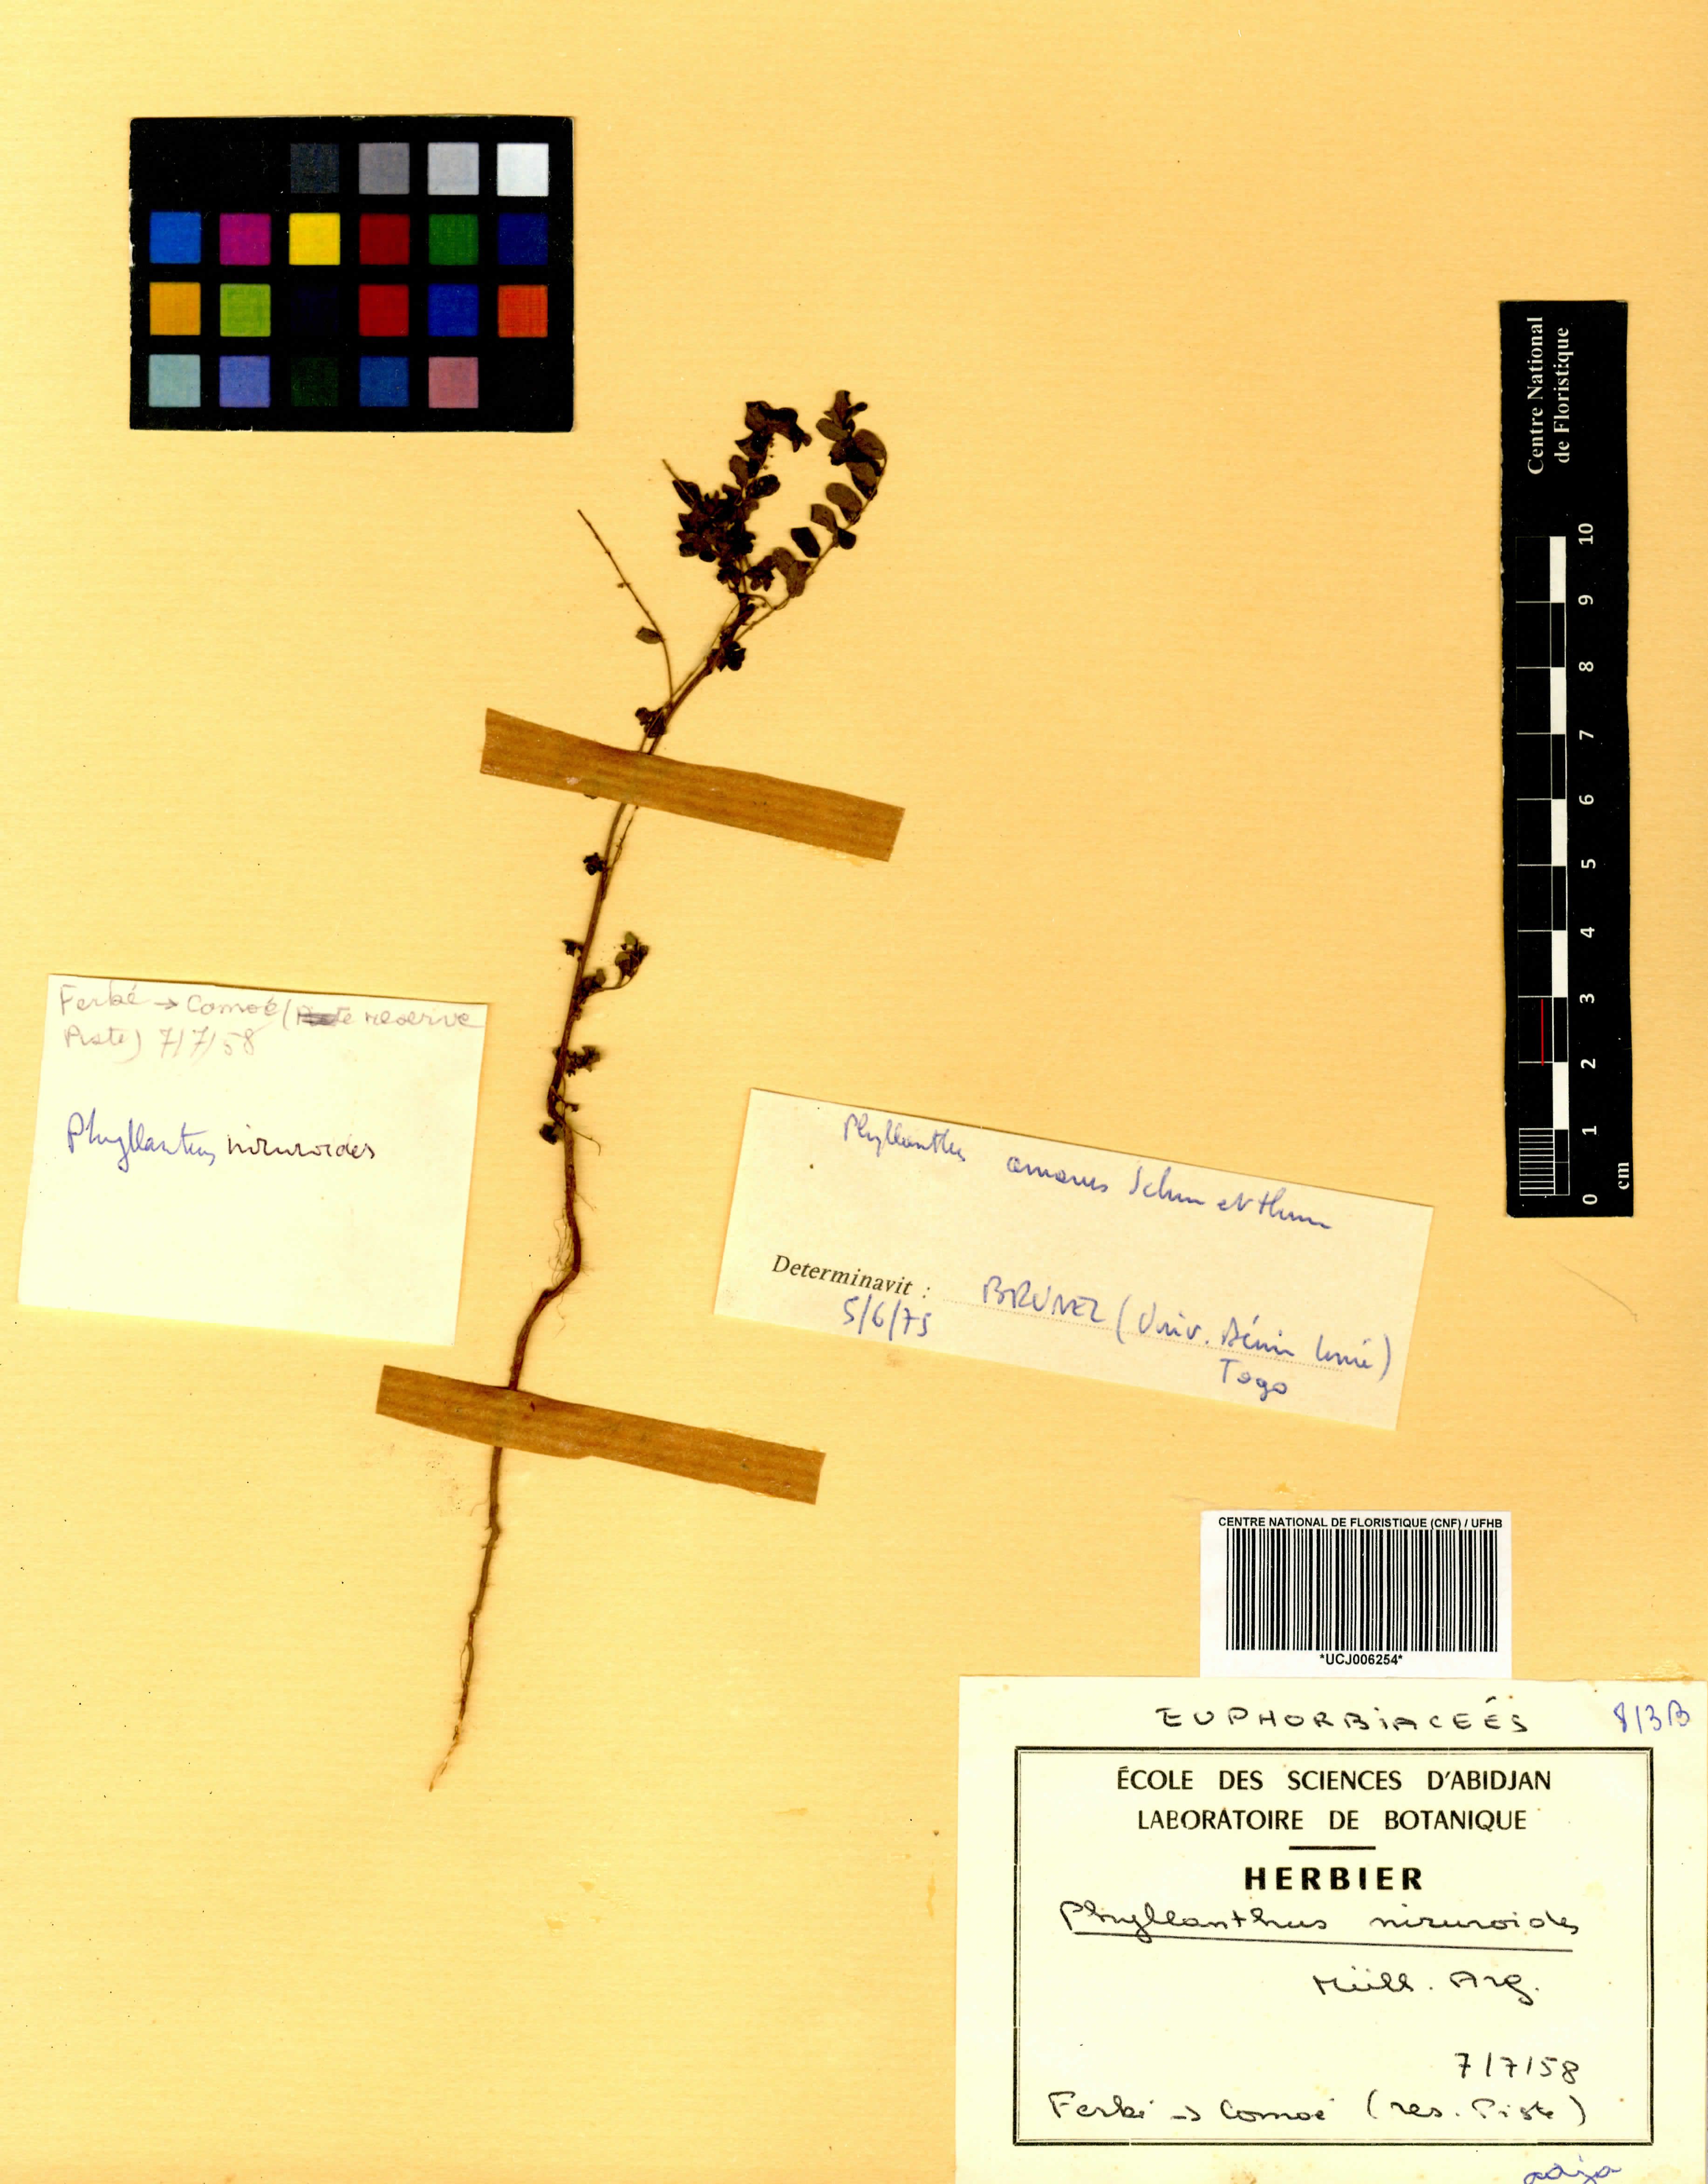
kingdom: Plantae
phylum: Tracheophyta
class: Magnoliopsida
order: Malpighiales
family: Phyllanthaceae
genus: Phyllanthus
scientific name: Phyllanthus niruroides
